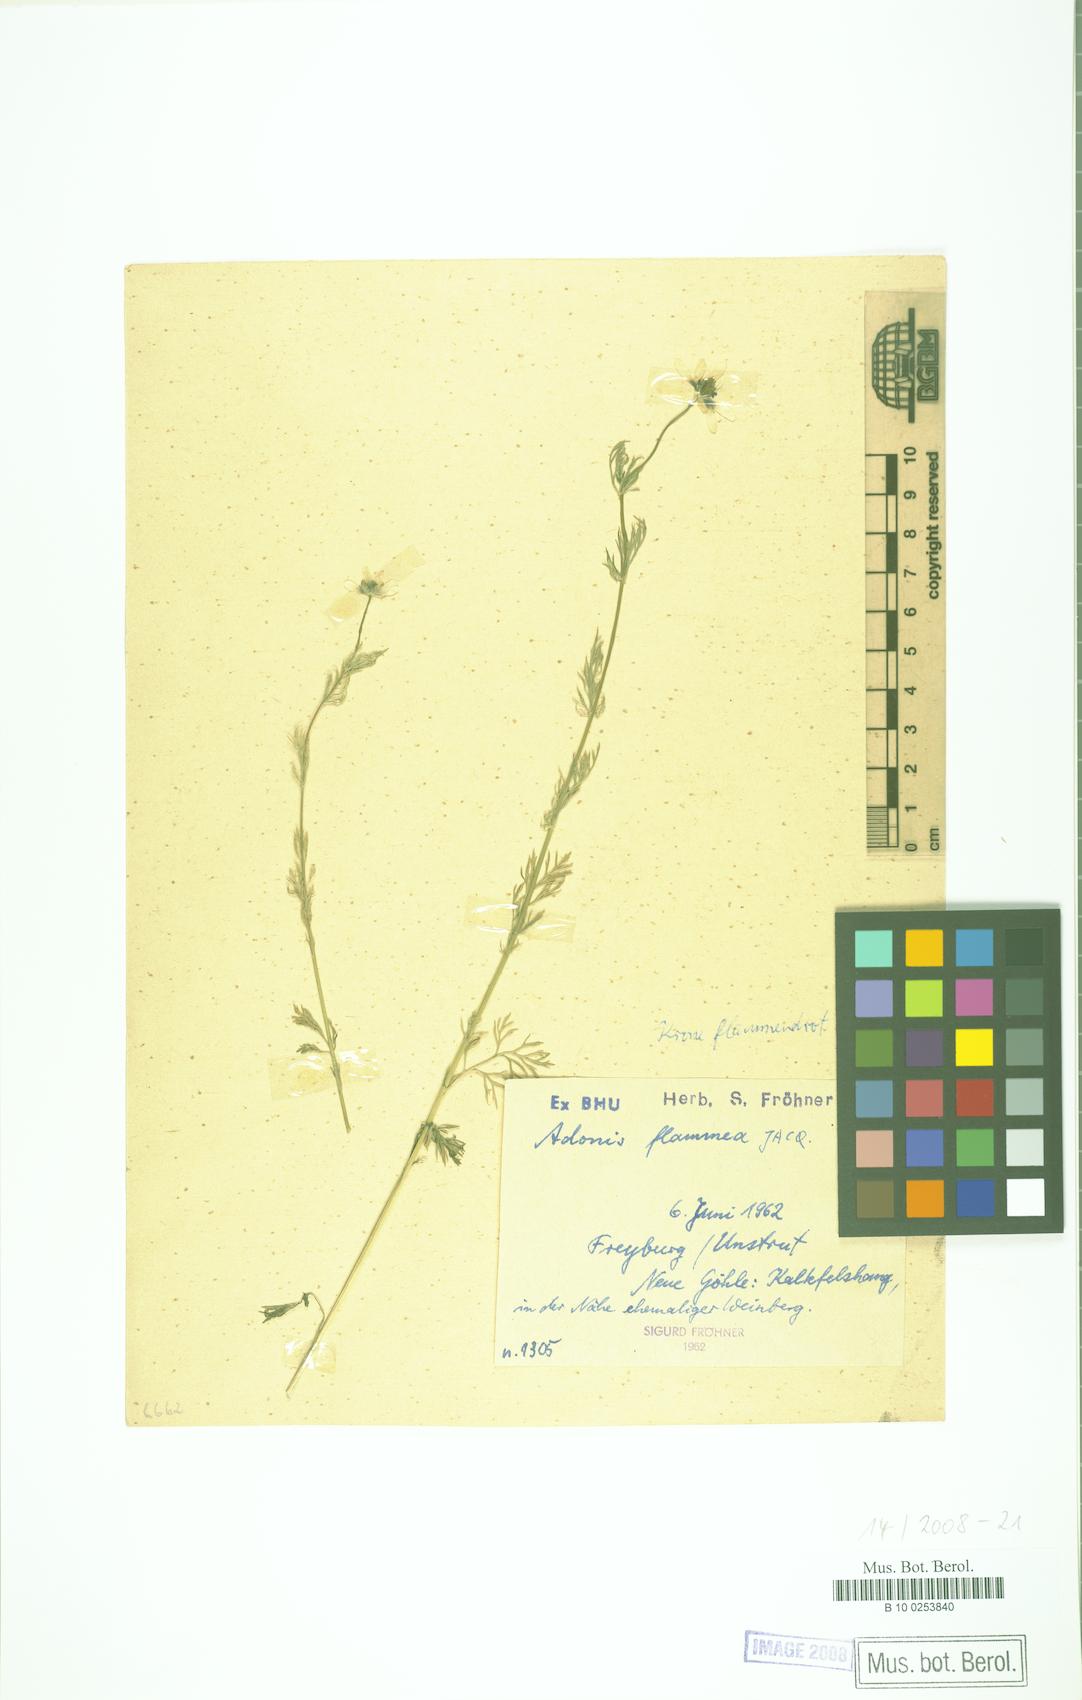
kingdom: Plantae
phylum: Tracheophyta
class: Magnoliopsida
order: Ranunculales
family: Ranunculaceae
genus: Adonis
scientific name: Adonis flammea
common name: Large pheasant's-eye
